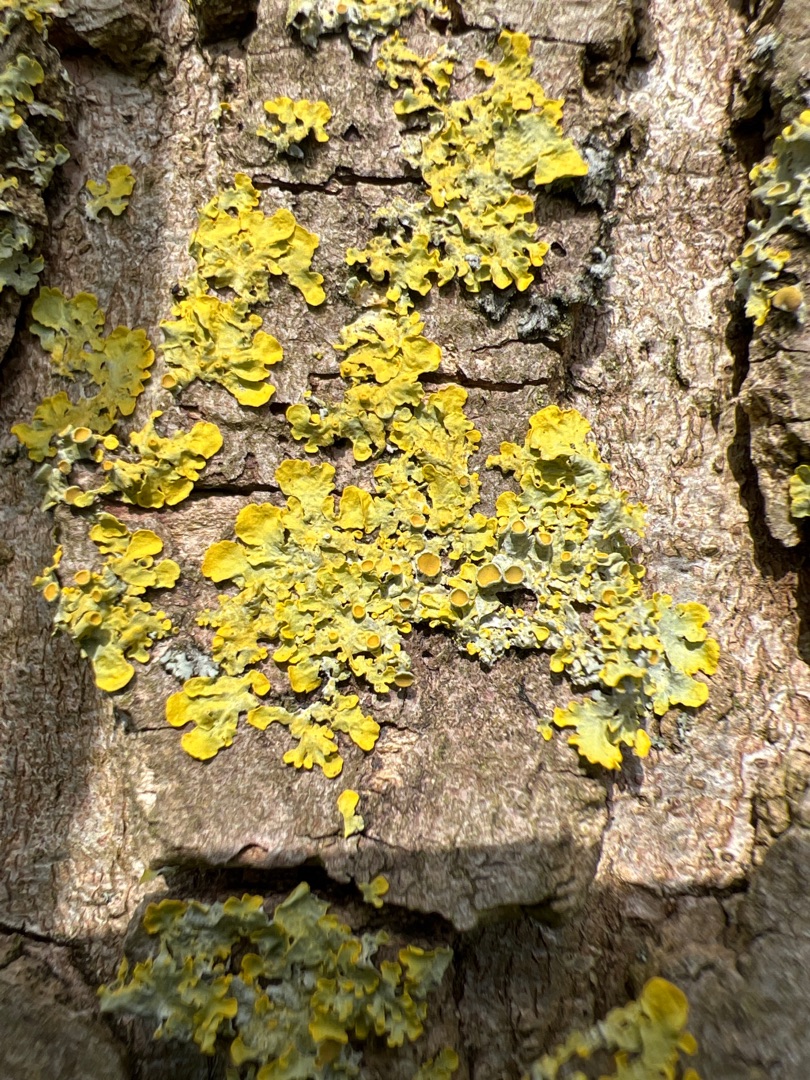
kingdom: Fungi
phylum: Ascomycota
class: Lecanoromycetes
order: Teloschistales
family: Teloschistaceae
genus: Xanthoria
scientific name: Xanthoria parietina
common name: Almindelig væggelav
